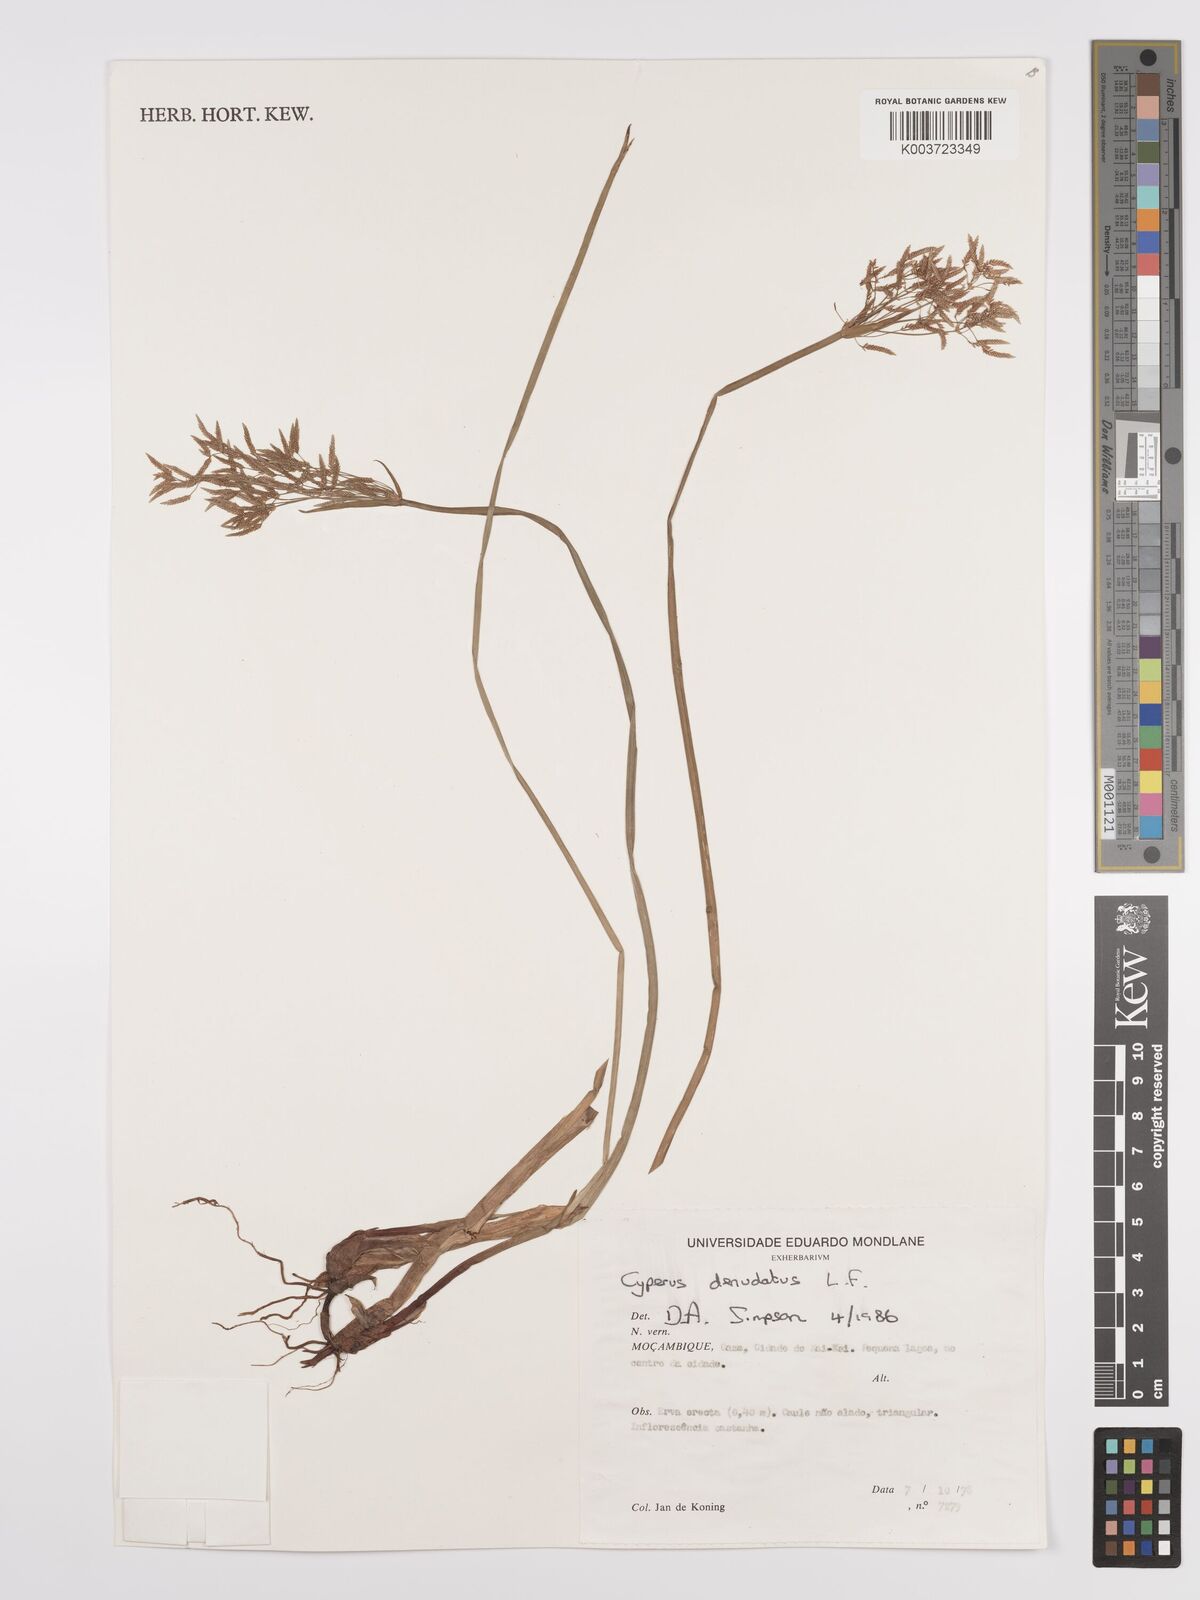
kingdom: Plantae
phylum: Tracheophyta
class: Liliopsida
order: Poales
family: Cyperaceae
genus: Cyperus
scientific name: Cyperus denudatus
